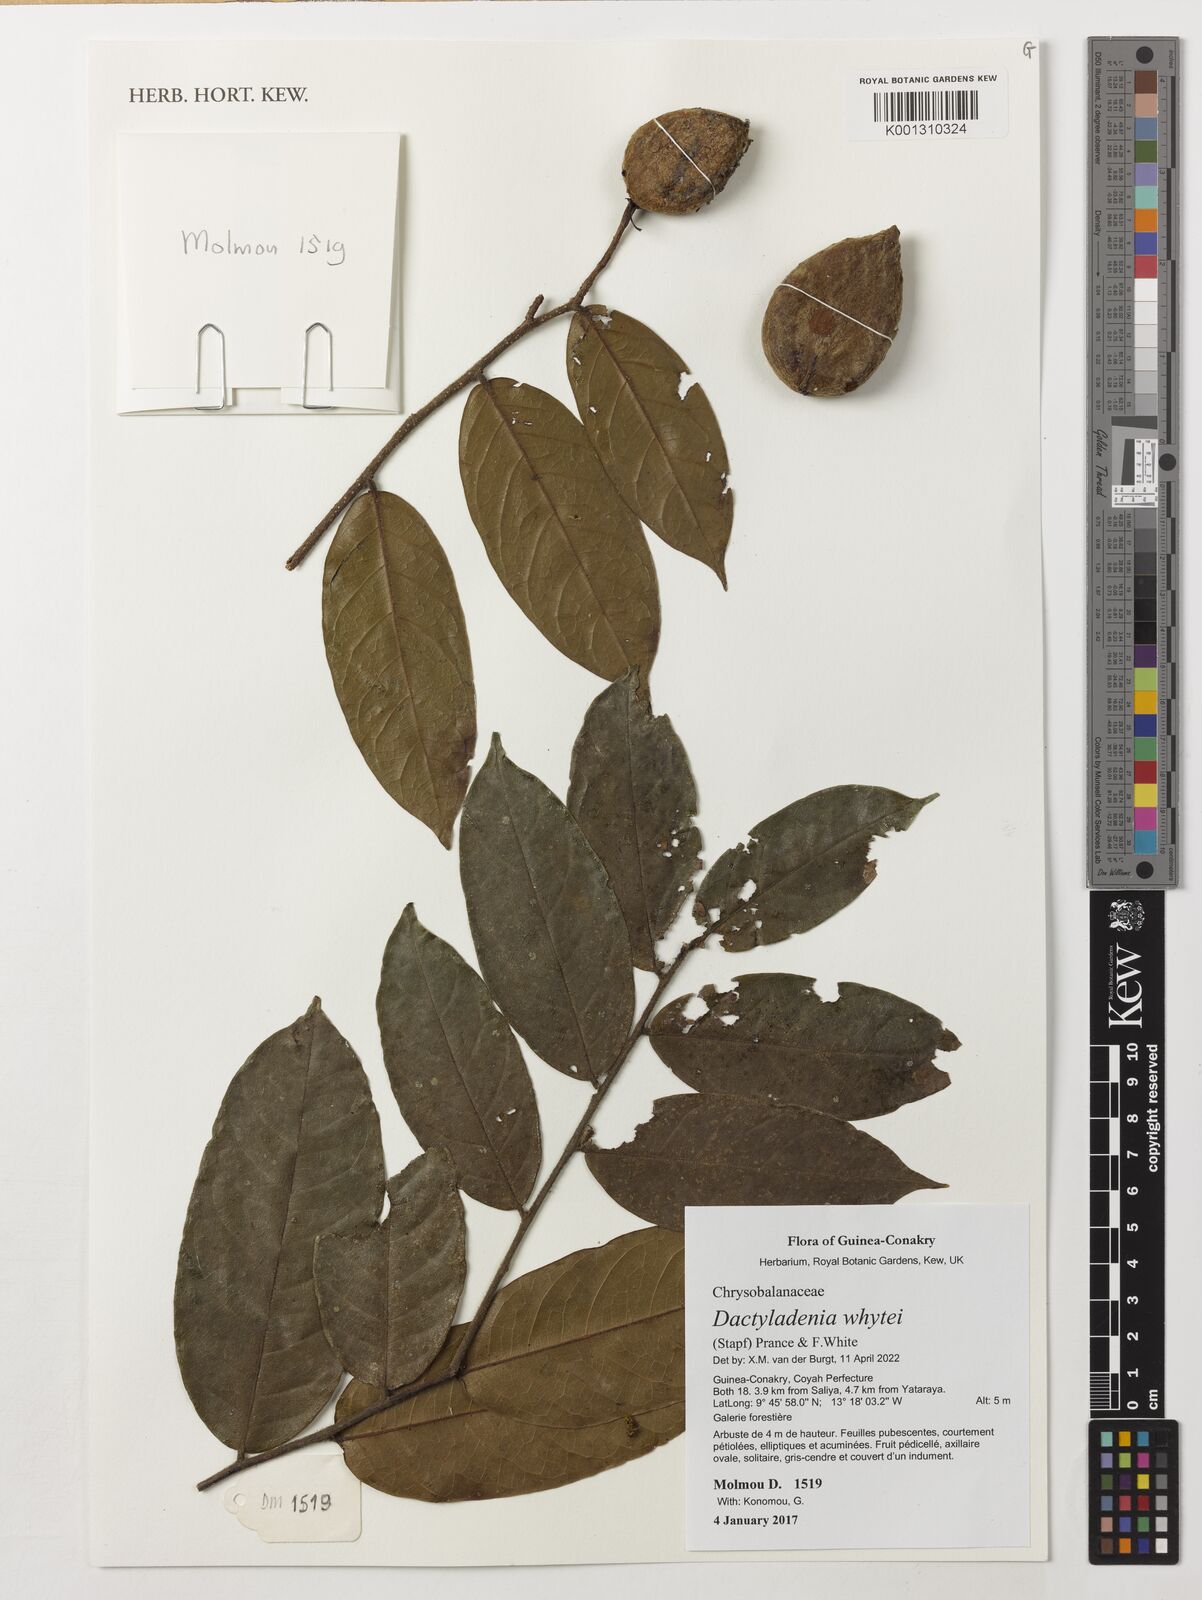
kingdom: Plantae
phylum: Tracheophyta
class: Magnoliopsida
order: Malpighiales
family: Chrysobalanaceae
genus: Dactyladenia
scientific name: Dactyladenia whytei
